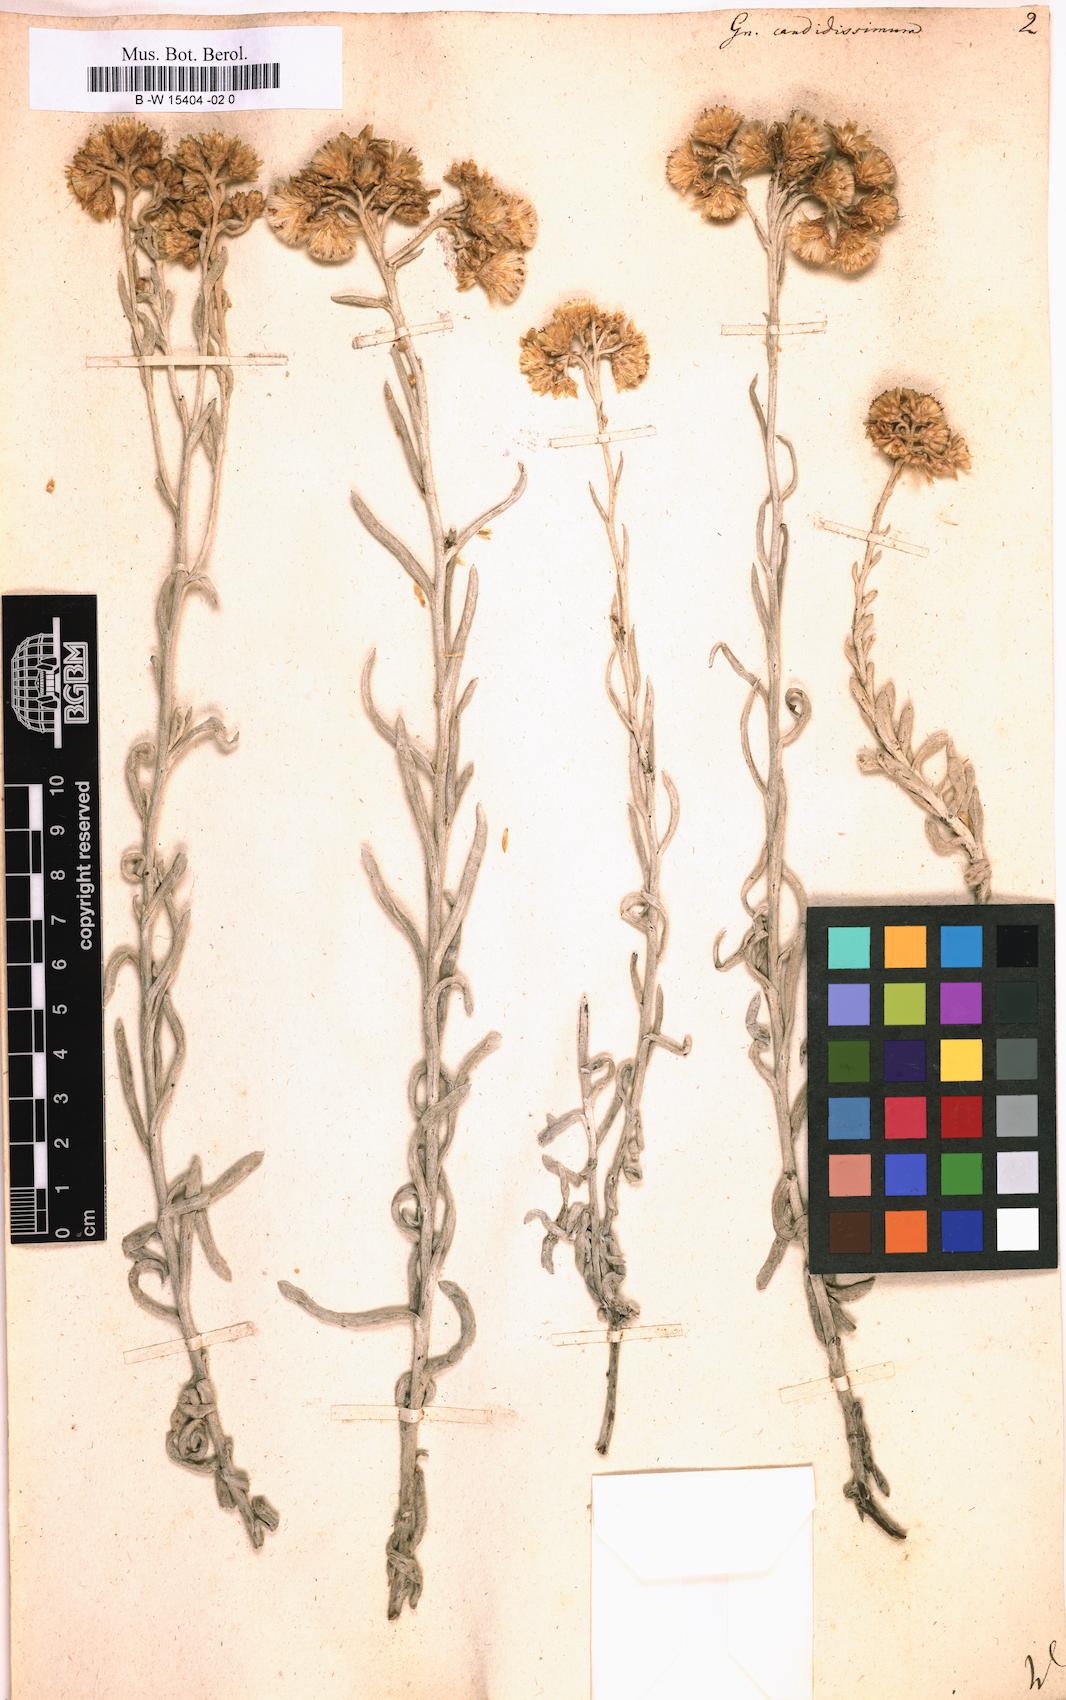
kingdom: Plantae
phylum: Tracheophyta
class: Magnoliopsida
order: Asterales
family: Asteraceae
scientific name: Asteraceae
